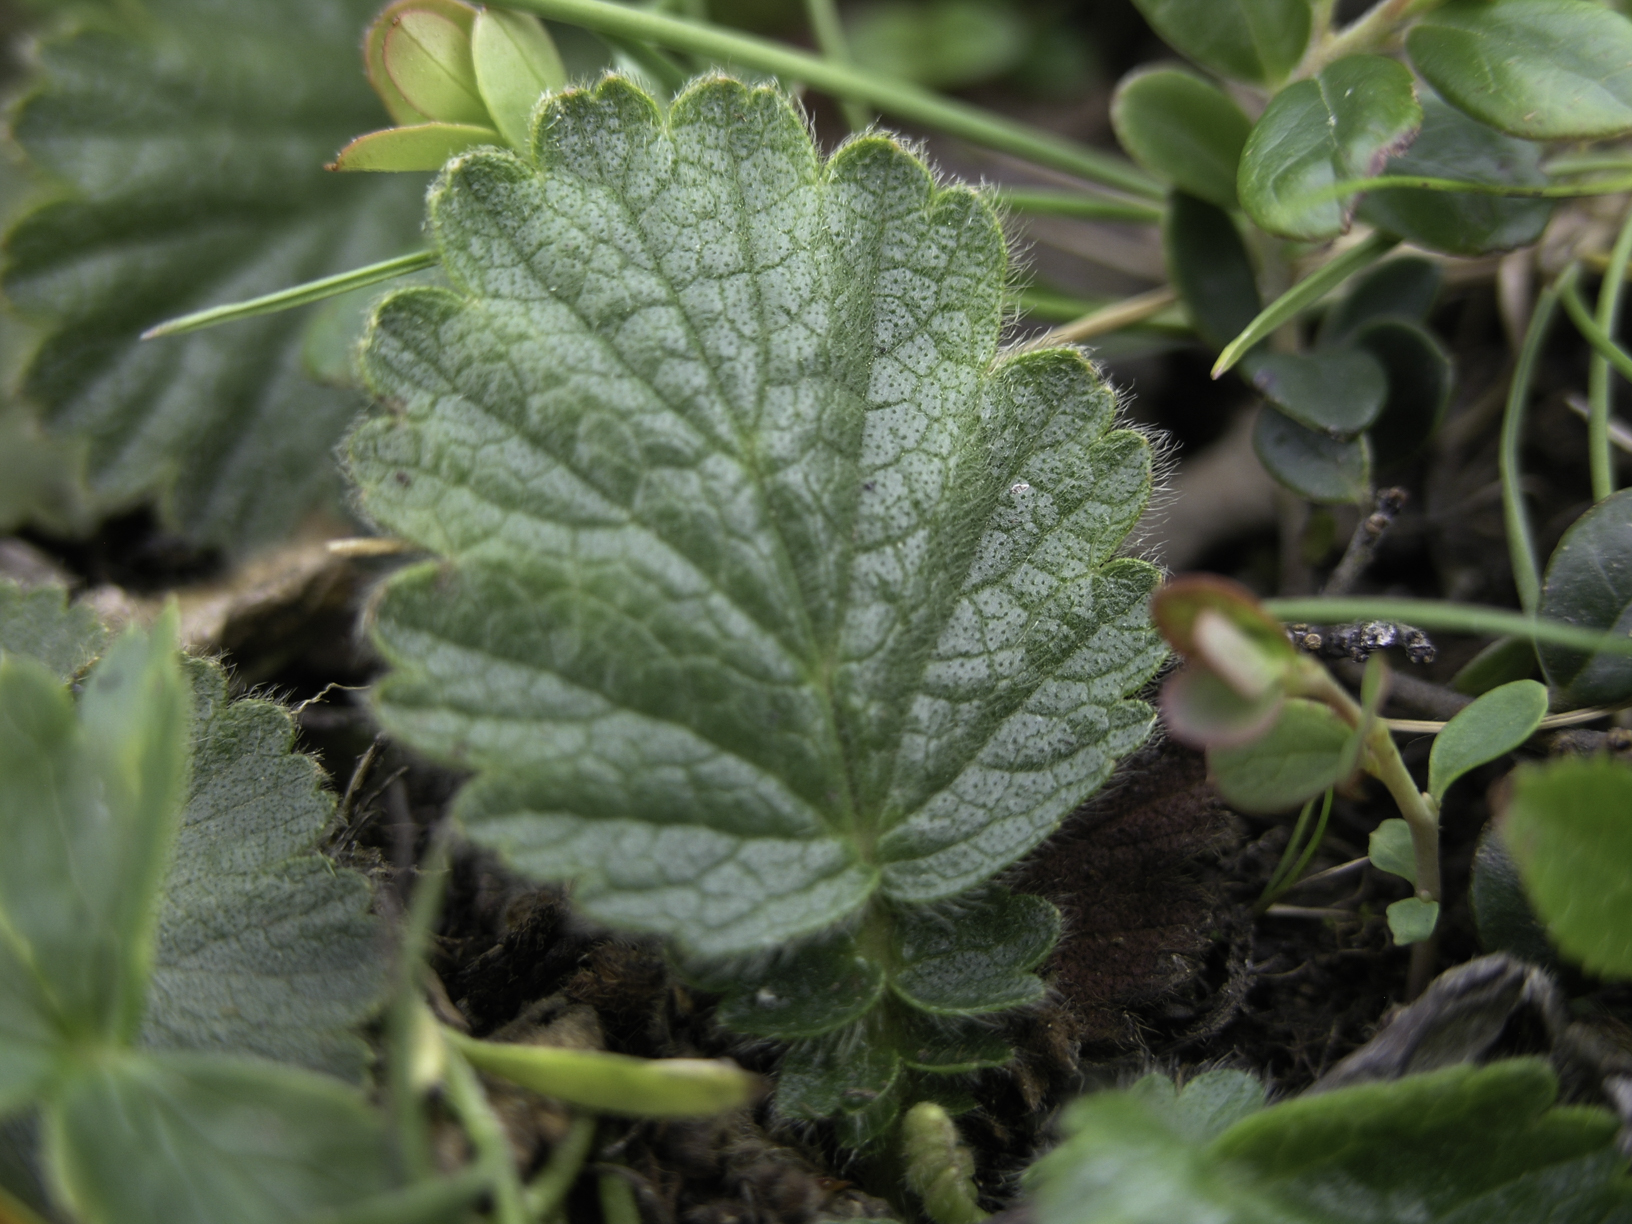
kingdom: Plantae
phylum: Tracheophyta
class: Magnoliopsida
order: Rosales
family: Rosaceae
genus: Geum
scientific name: Geum montanum
